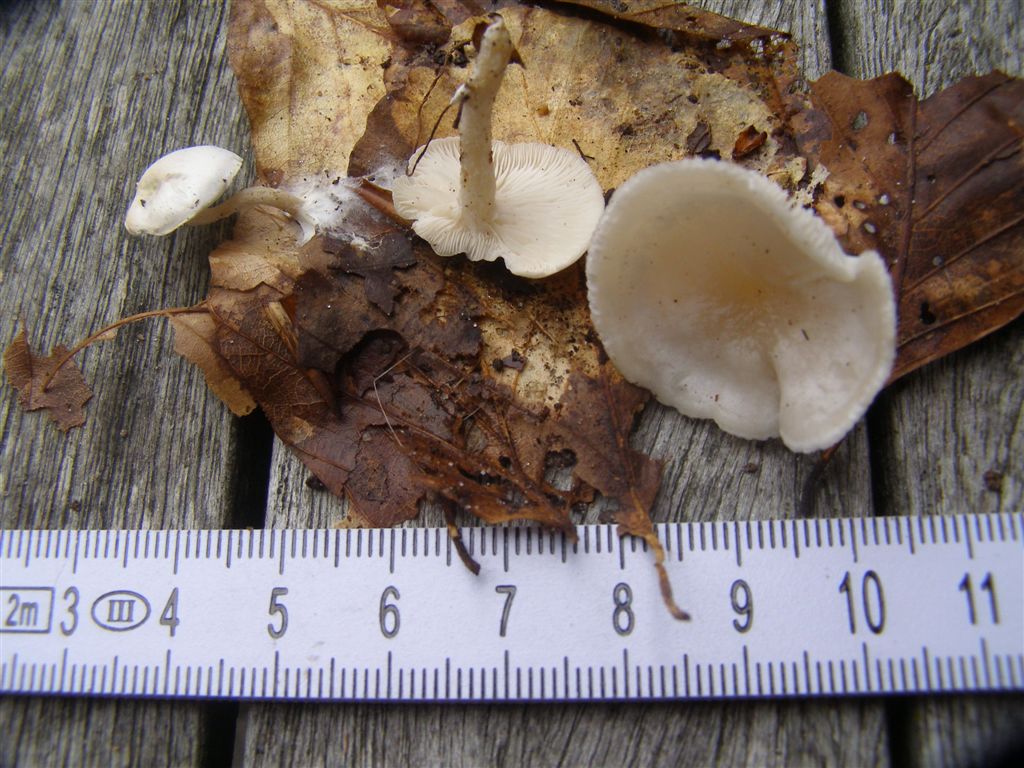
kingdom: Fungi
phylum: Basidiomycota
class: Agaricomycetes
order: Agaricales
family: Tricholomataceae
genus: Leucocybe
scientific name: Leucocybe candicans
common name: kridt-tragthat
